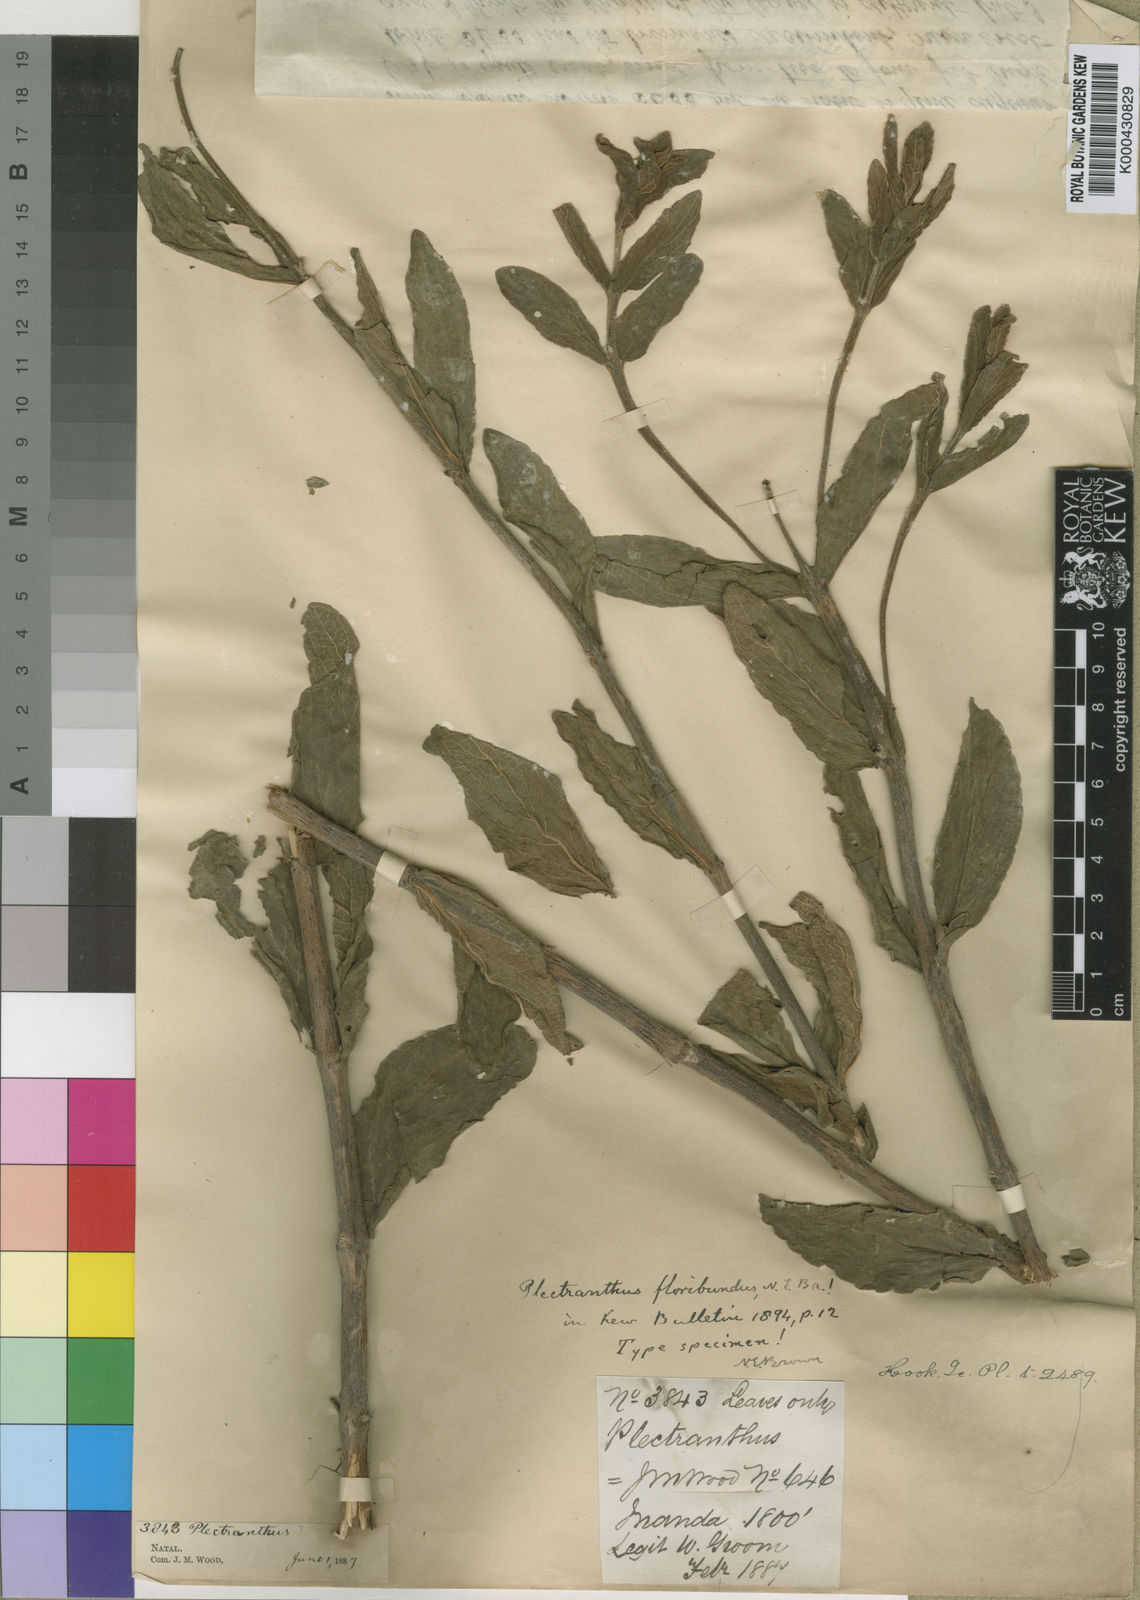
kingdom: Plantae
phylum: Tracheophyta
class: Magnoliopsida
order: Lamiales
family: Lamiaceae
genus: Coleus
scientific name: Coleus esculentus
